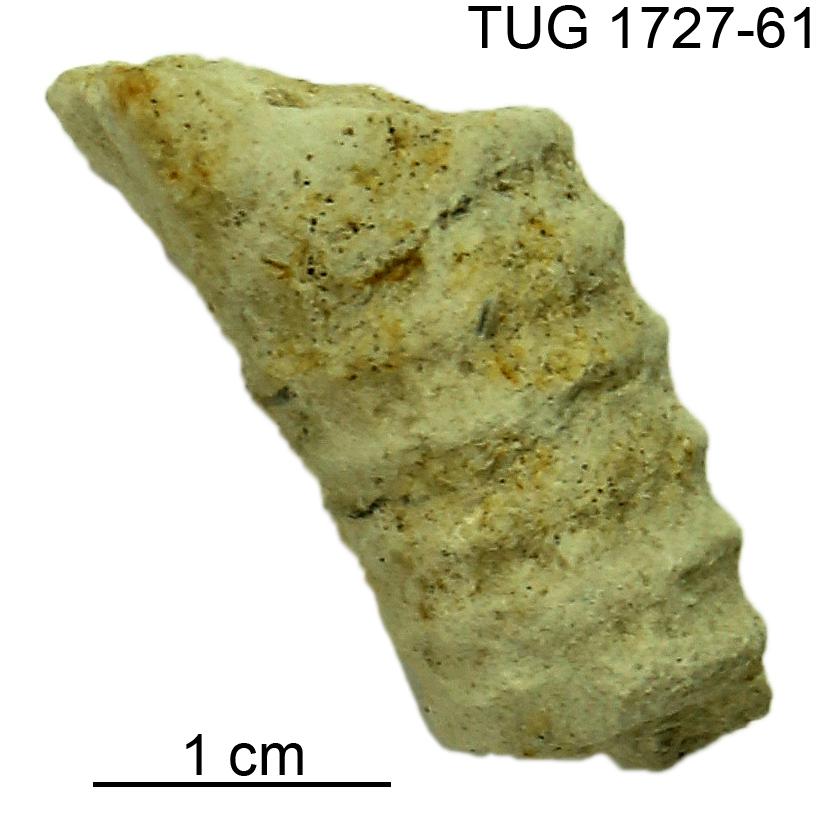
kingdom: Animalia
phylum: Mollusca
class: Cephalopoda
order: Nautilida
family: Nautilidae
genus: Dawsonoceras
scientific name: Dawsonoceras
